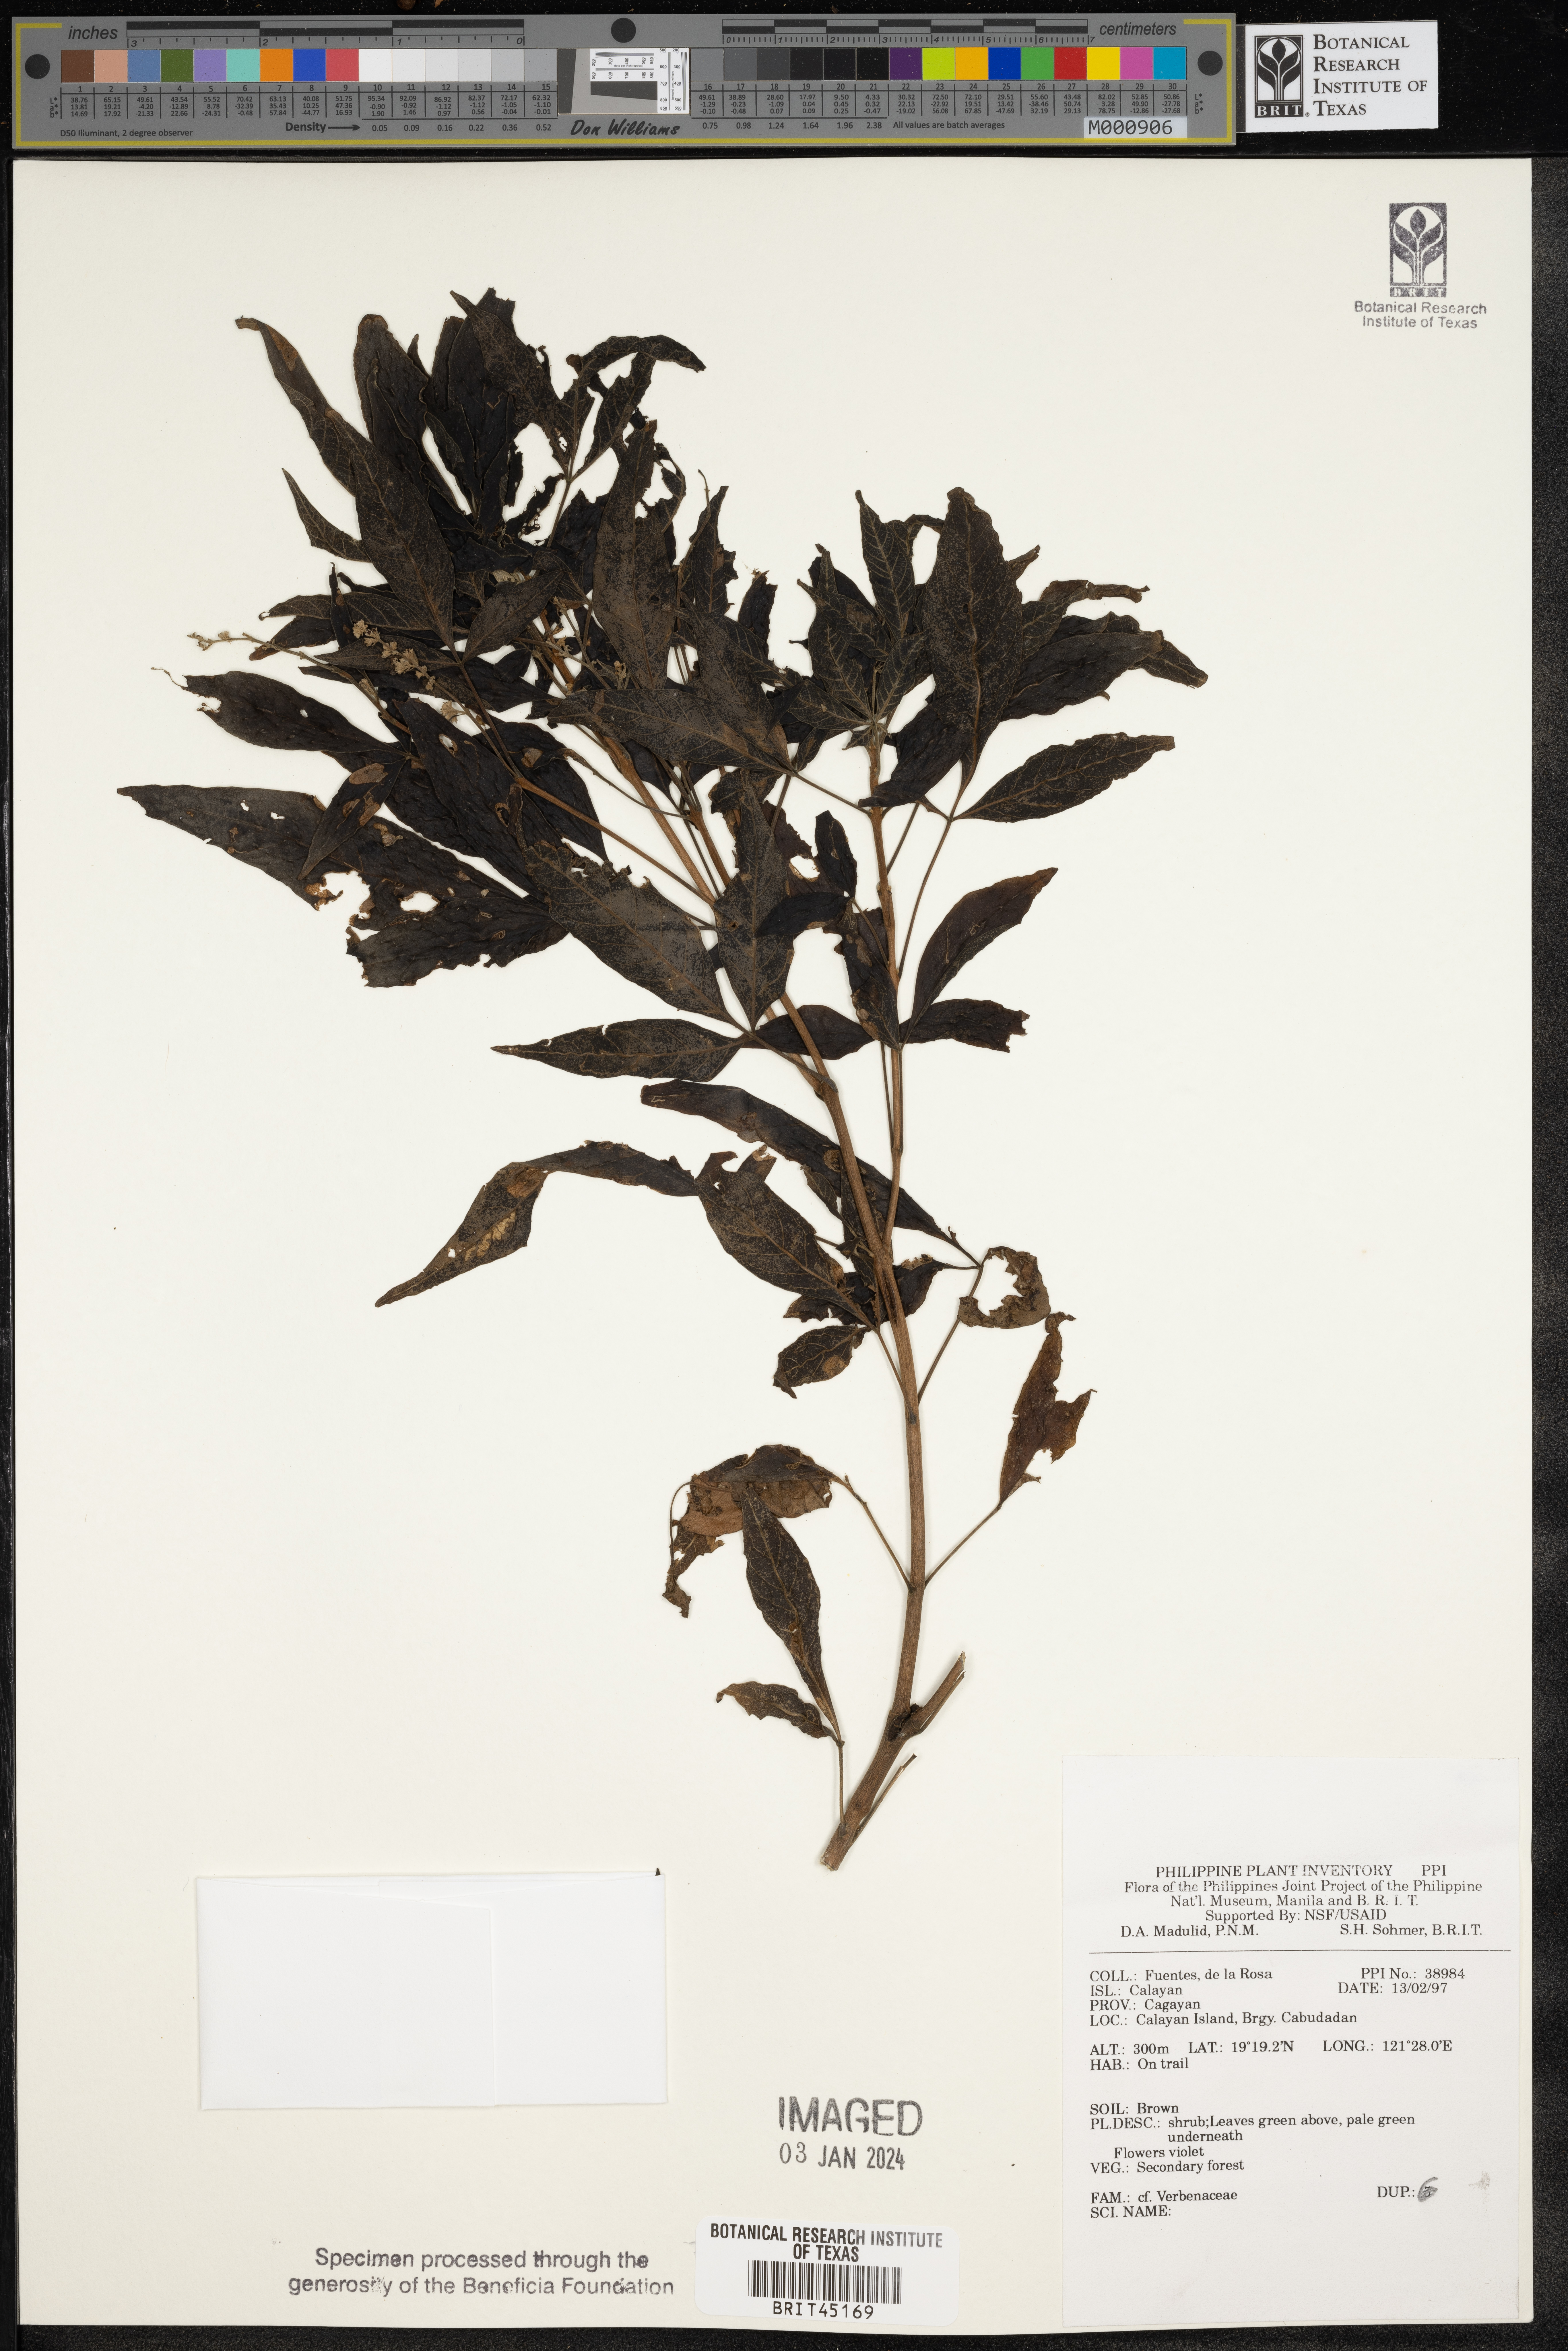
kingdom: Plantae
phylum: Tracheophyta
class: Magnoliopsida
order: Lamiales
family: Verbenaceae
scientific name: Verbenaceae
